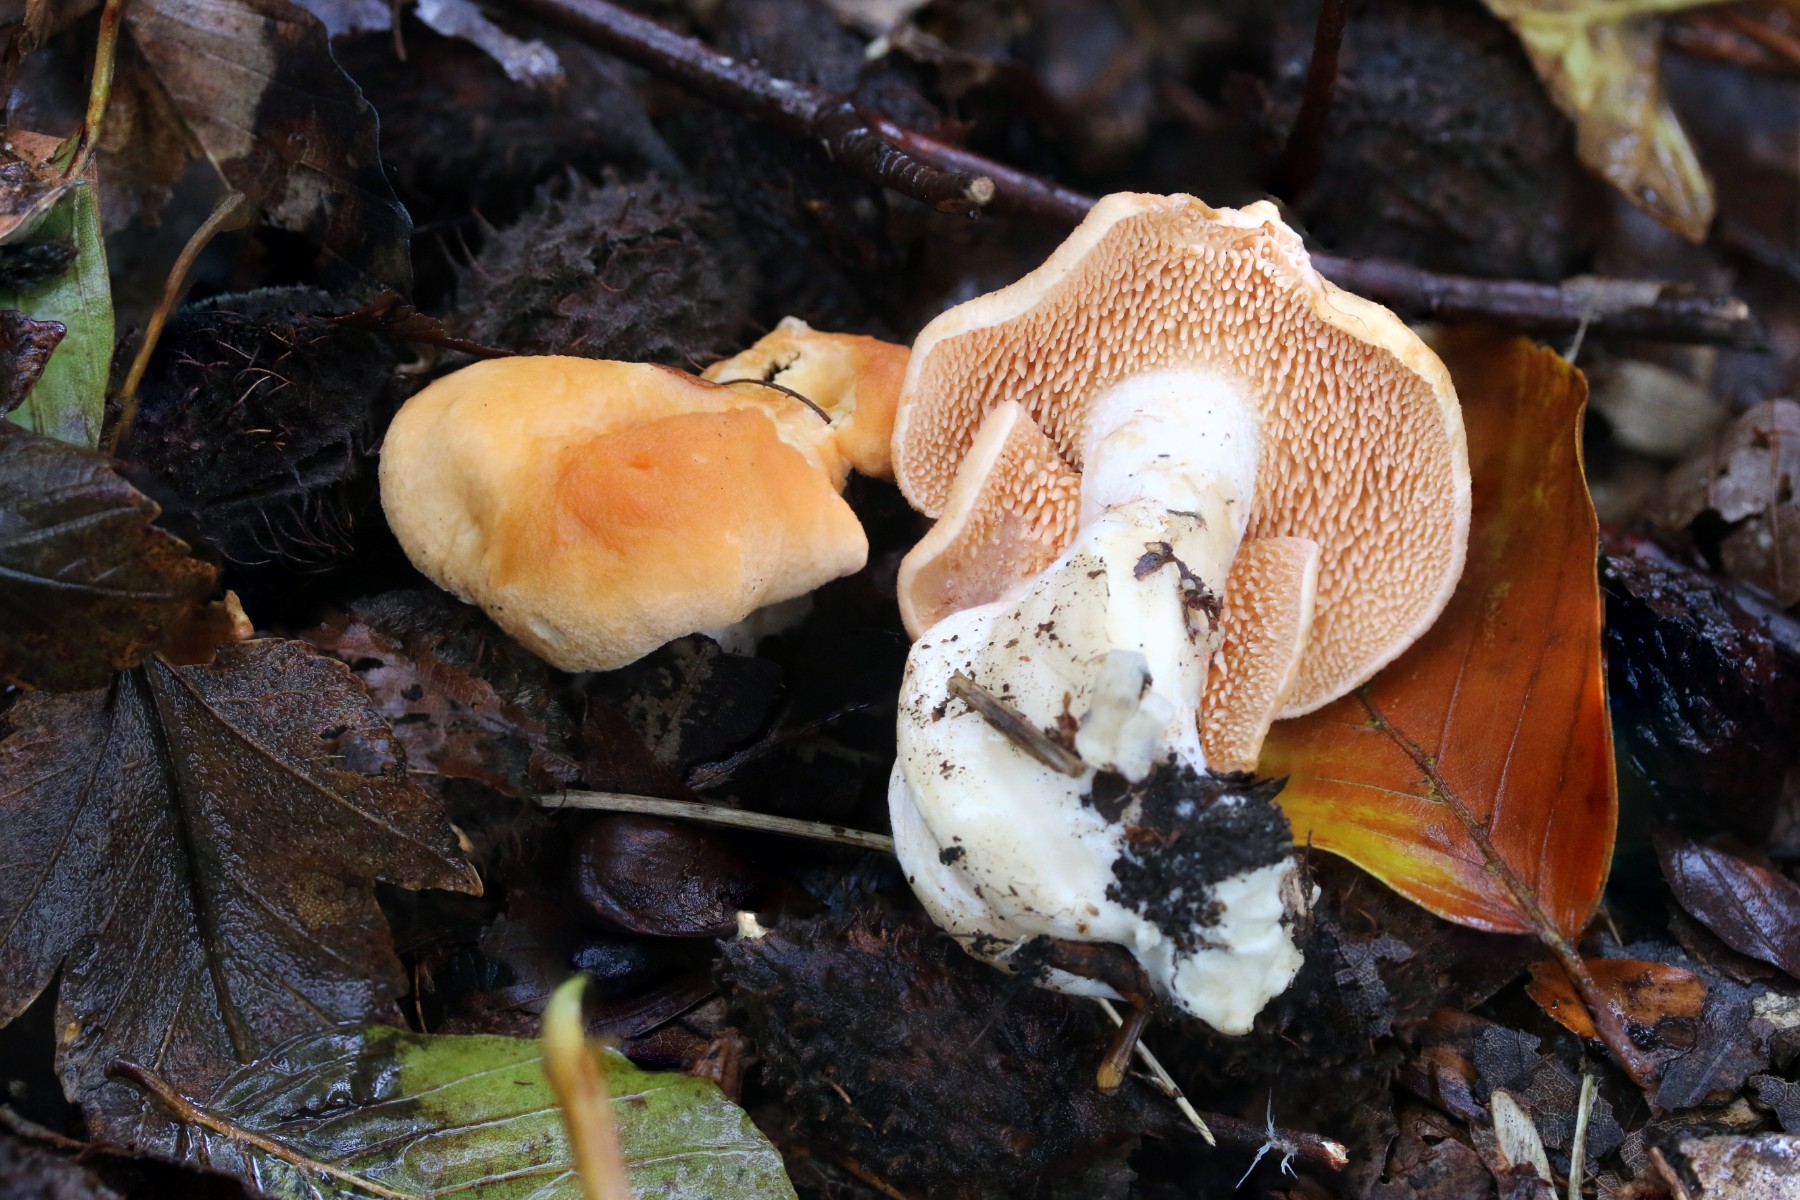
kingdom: Fungi
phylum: Basidiomycota
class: Agaricomycetes
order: Cantharellales
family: Hydnaceae
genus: Hydnum
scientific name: Hydnum ellipsosporum
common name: tandet pigsvamp
